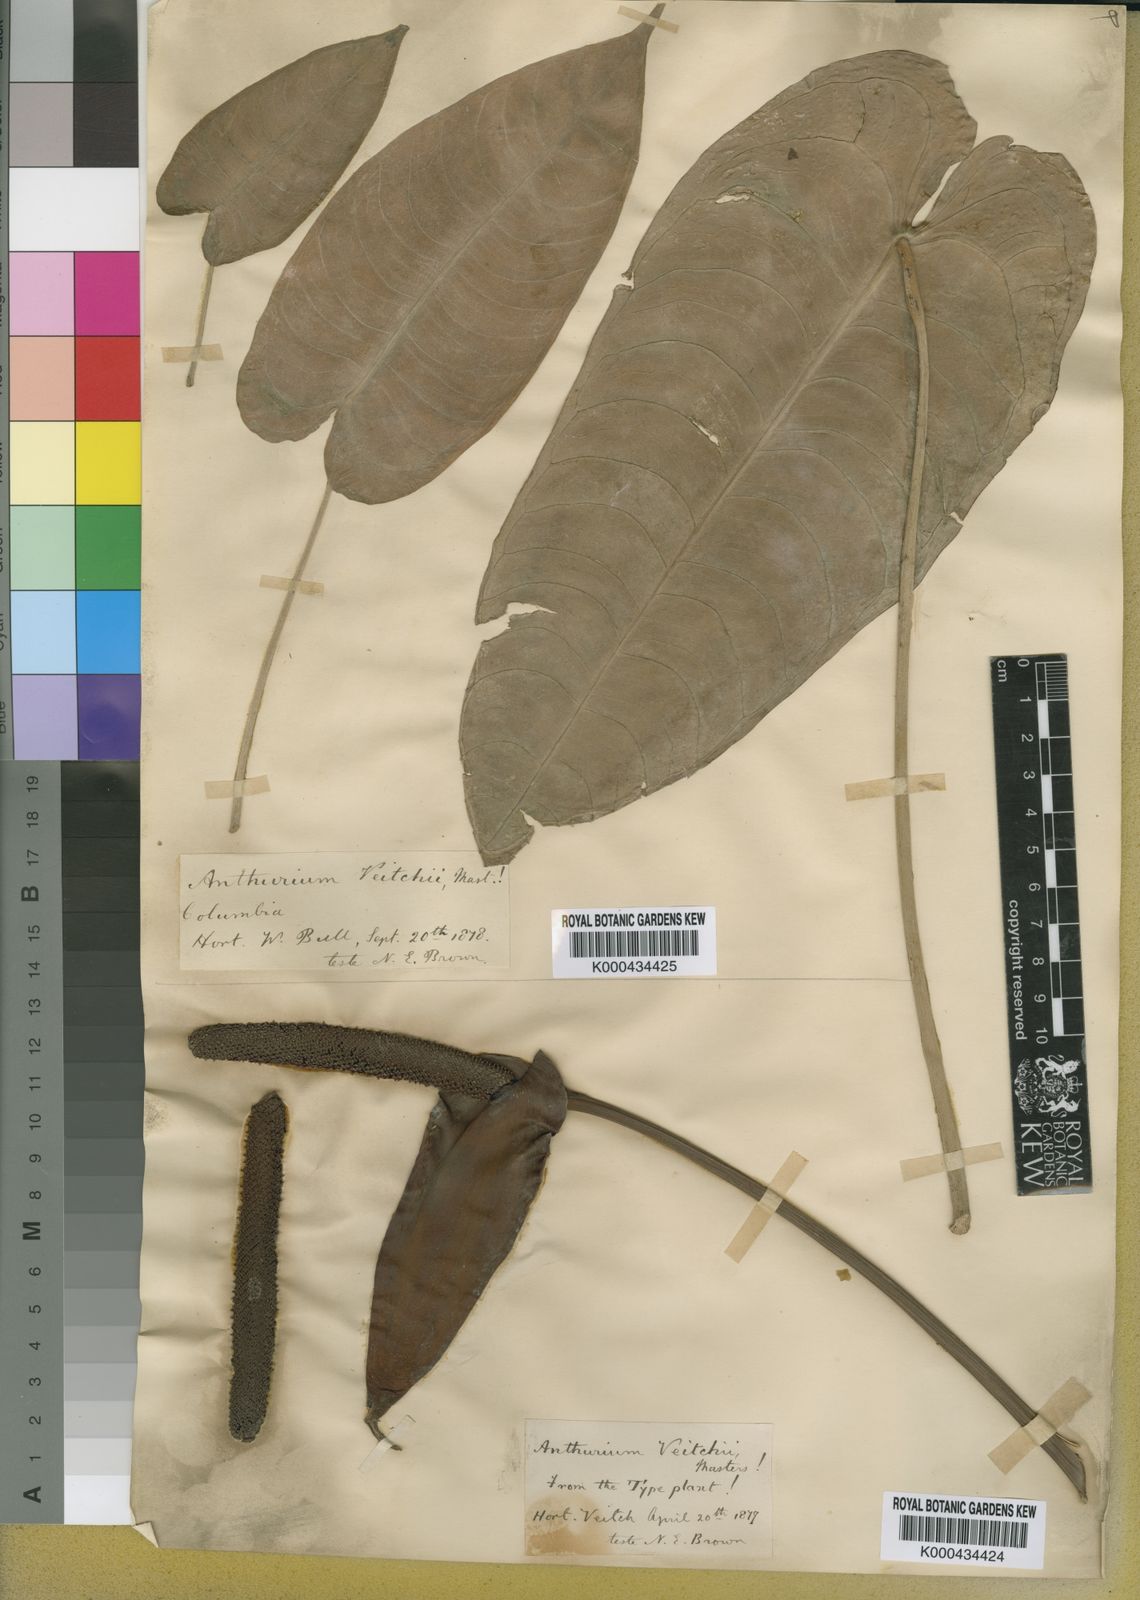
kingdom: Plantae
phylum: Tracheophyta
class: Liliopsida
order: Alismatales
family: Araceae
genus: Anthurium
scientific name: Anthurium
